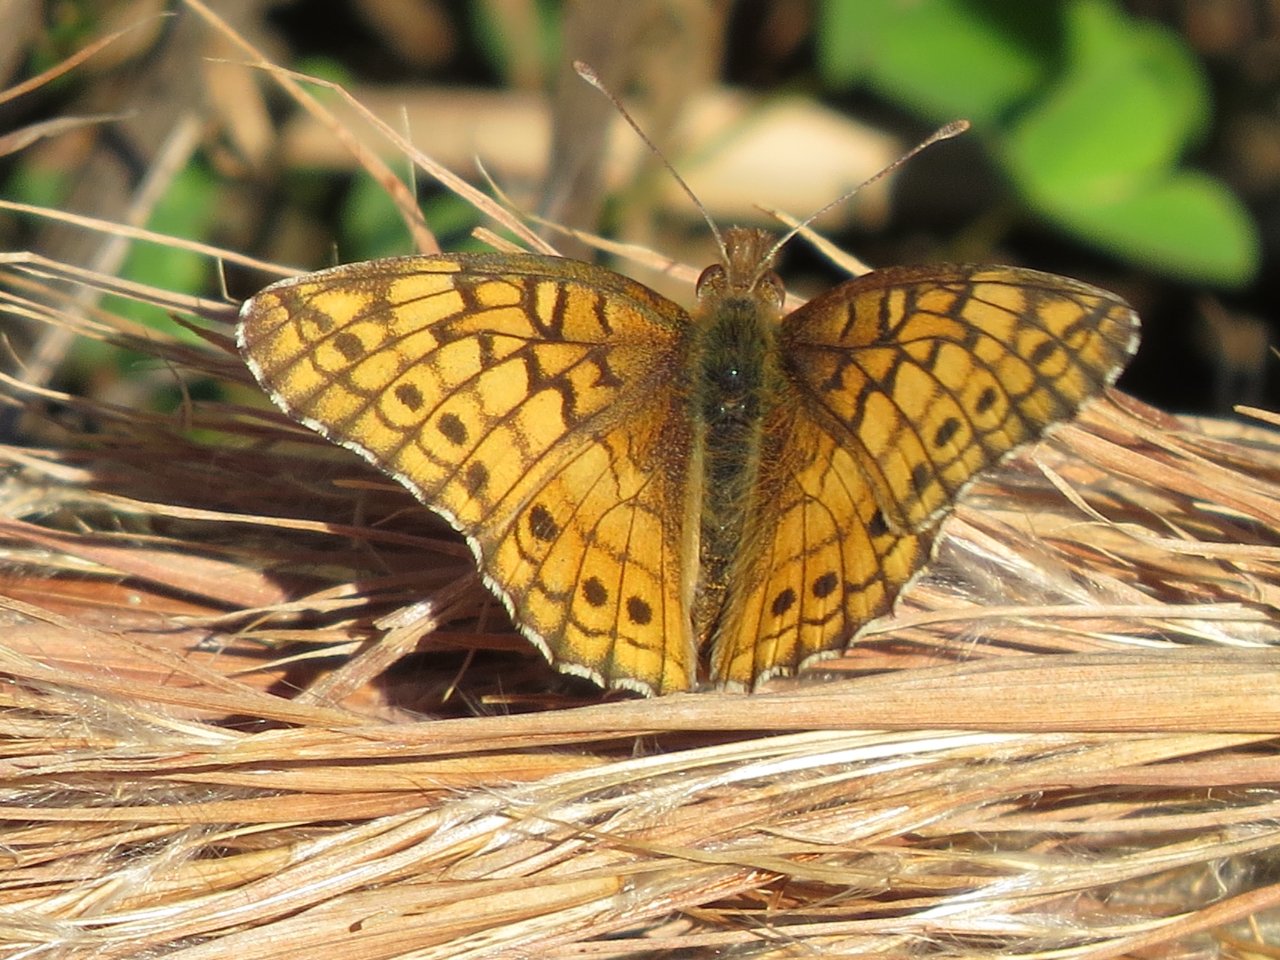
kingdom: Animalia
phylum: Arthropoda
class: Insecta
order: Lepidoptera
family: Nymphalidae
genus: Euptoieta
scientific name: Euptoieta claudia
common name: Variegated Fritillary
